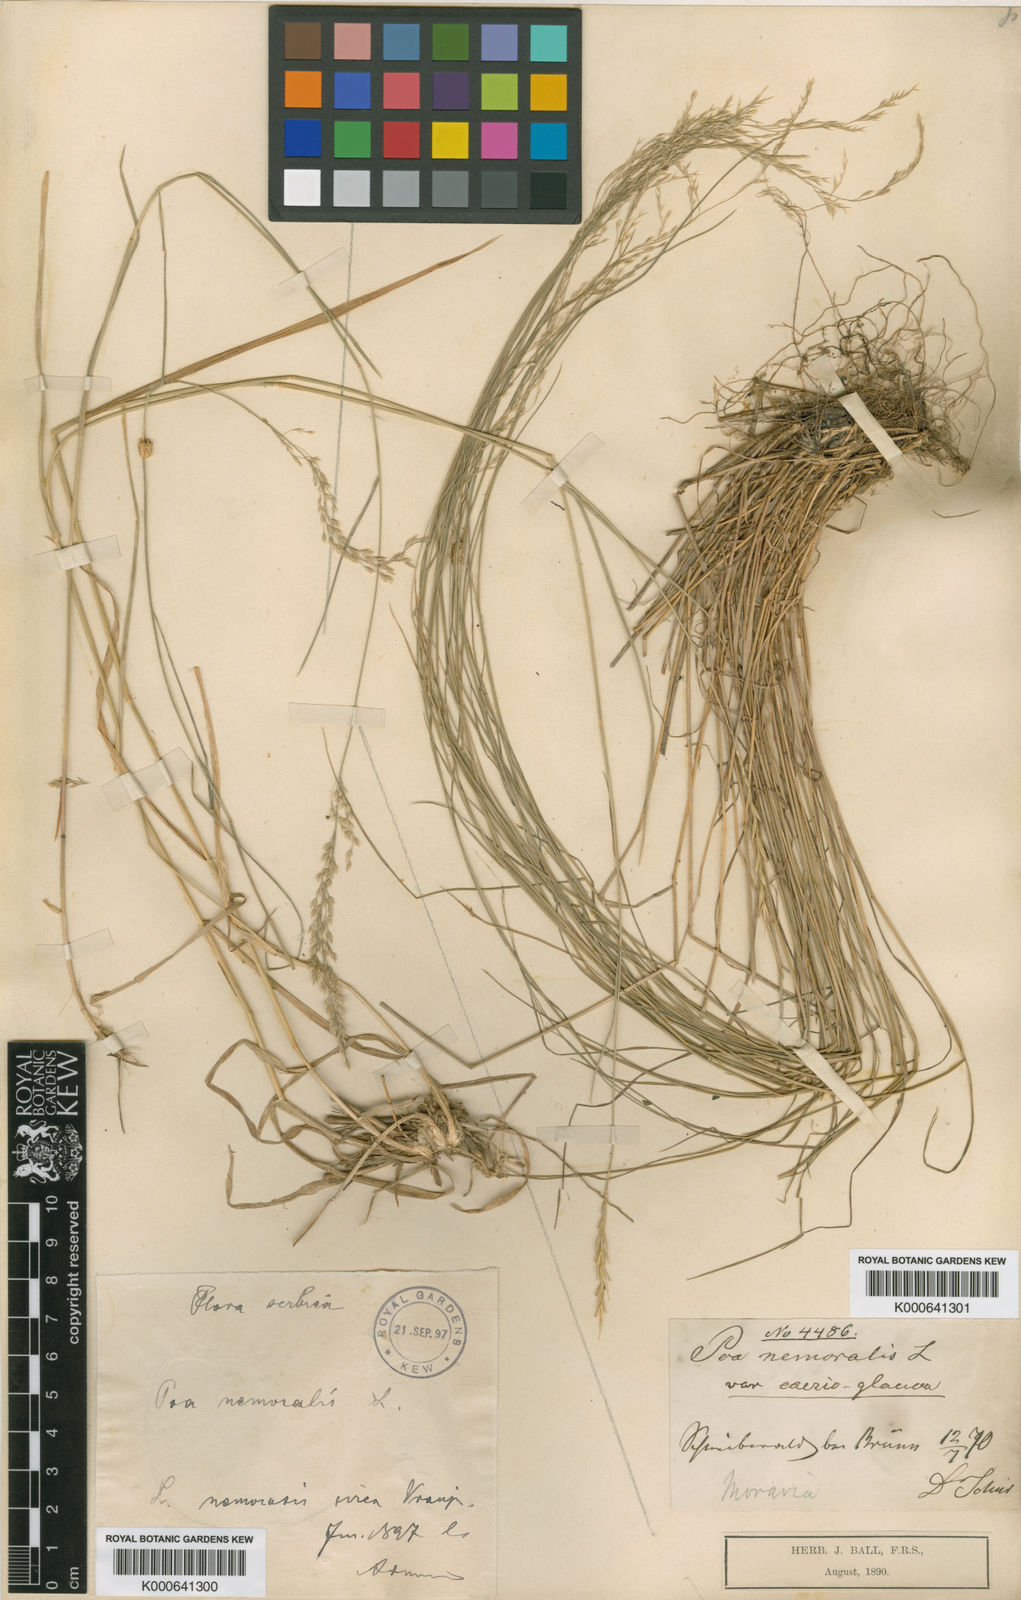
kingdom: Plantae
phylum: Tracheophyta
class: Liliopsida
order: Poales
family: Poaceae
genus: Poa
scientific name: Poa
